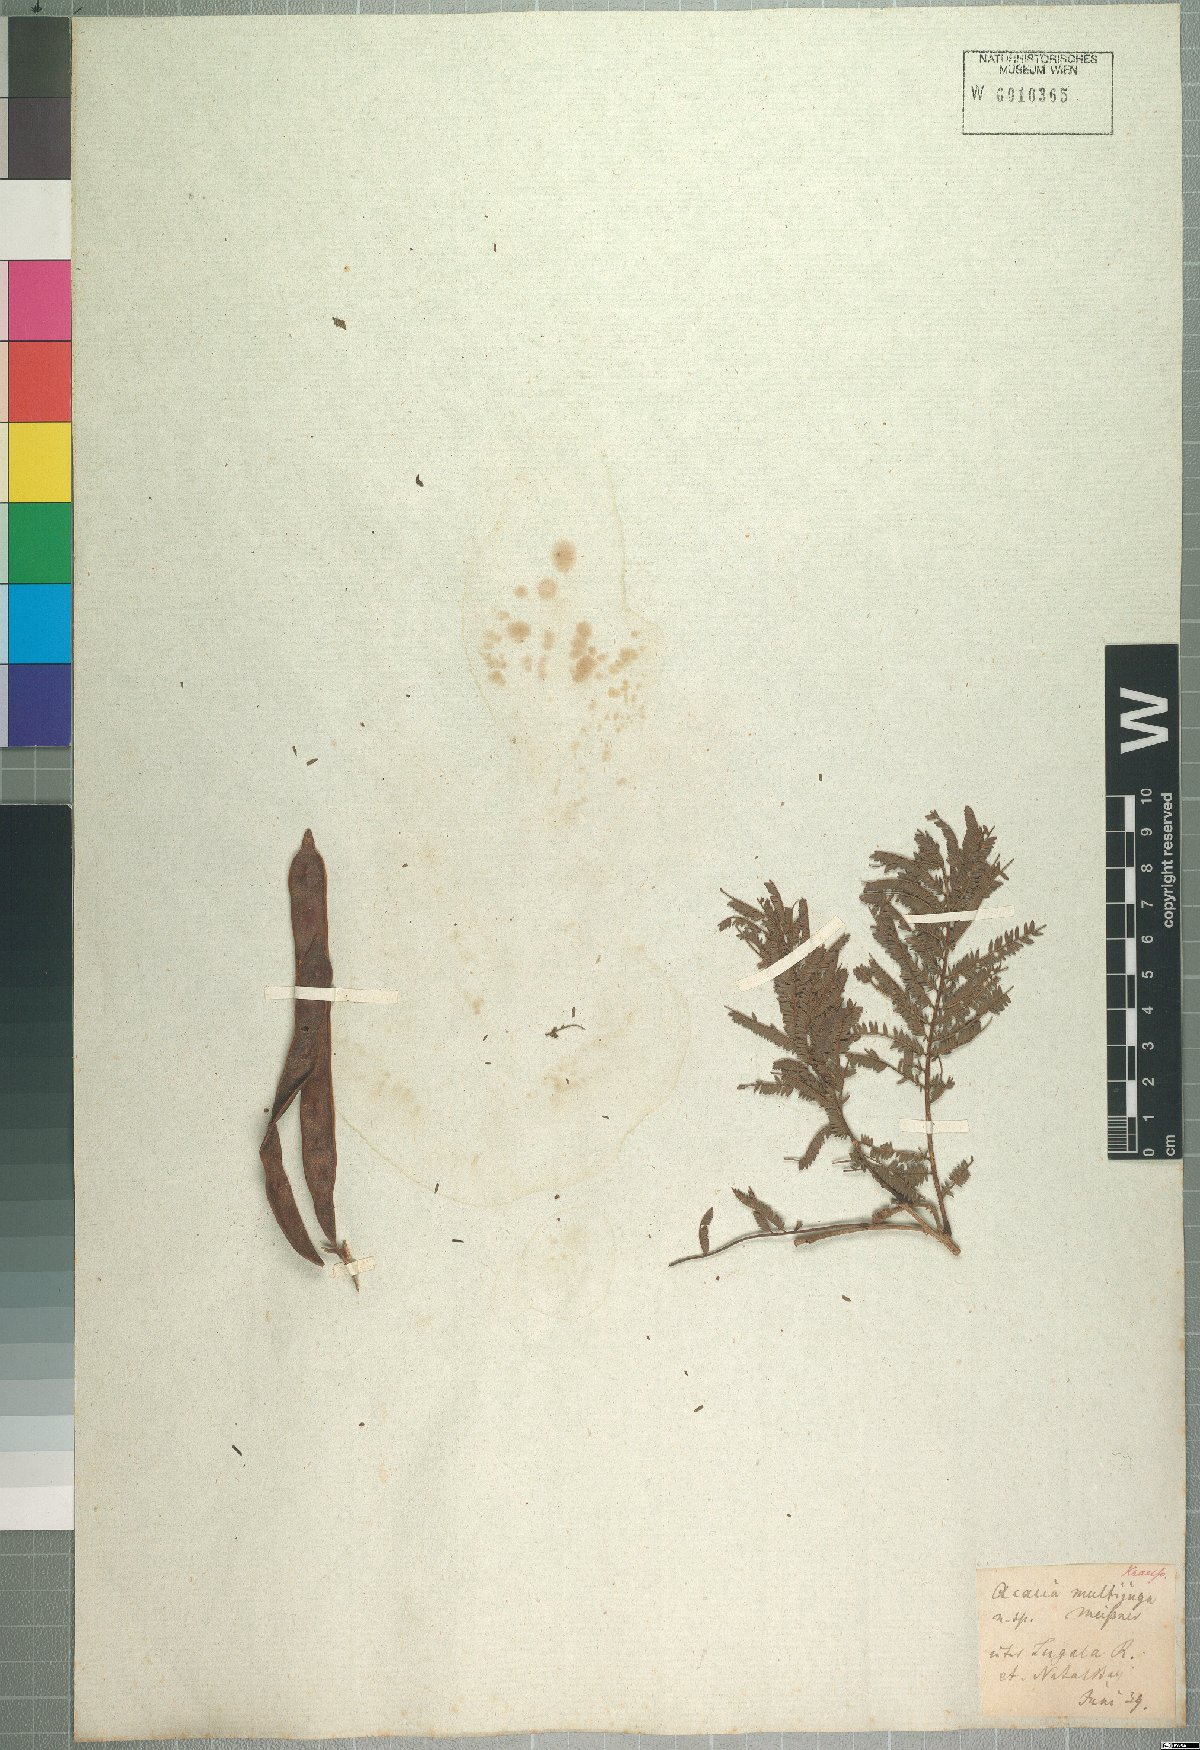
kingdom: Plantae
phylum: Tracheophyta
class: Magnoliopsida
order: Fabales
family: Fabaceae
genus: Senegalia
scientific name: Senegalia caffra
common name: Cat thorn
